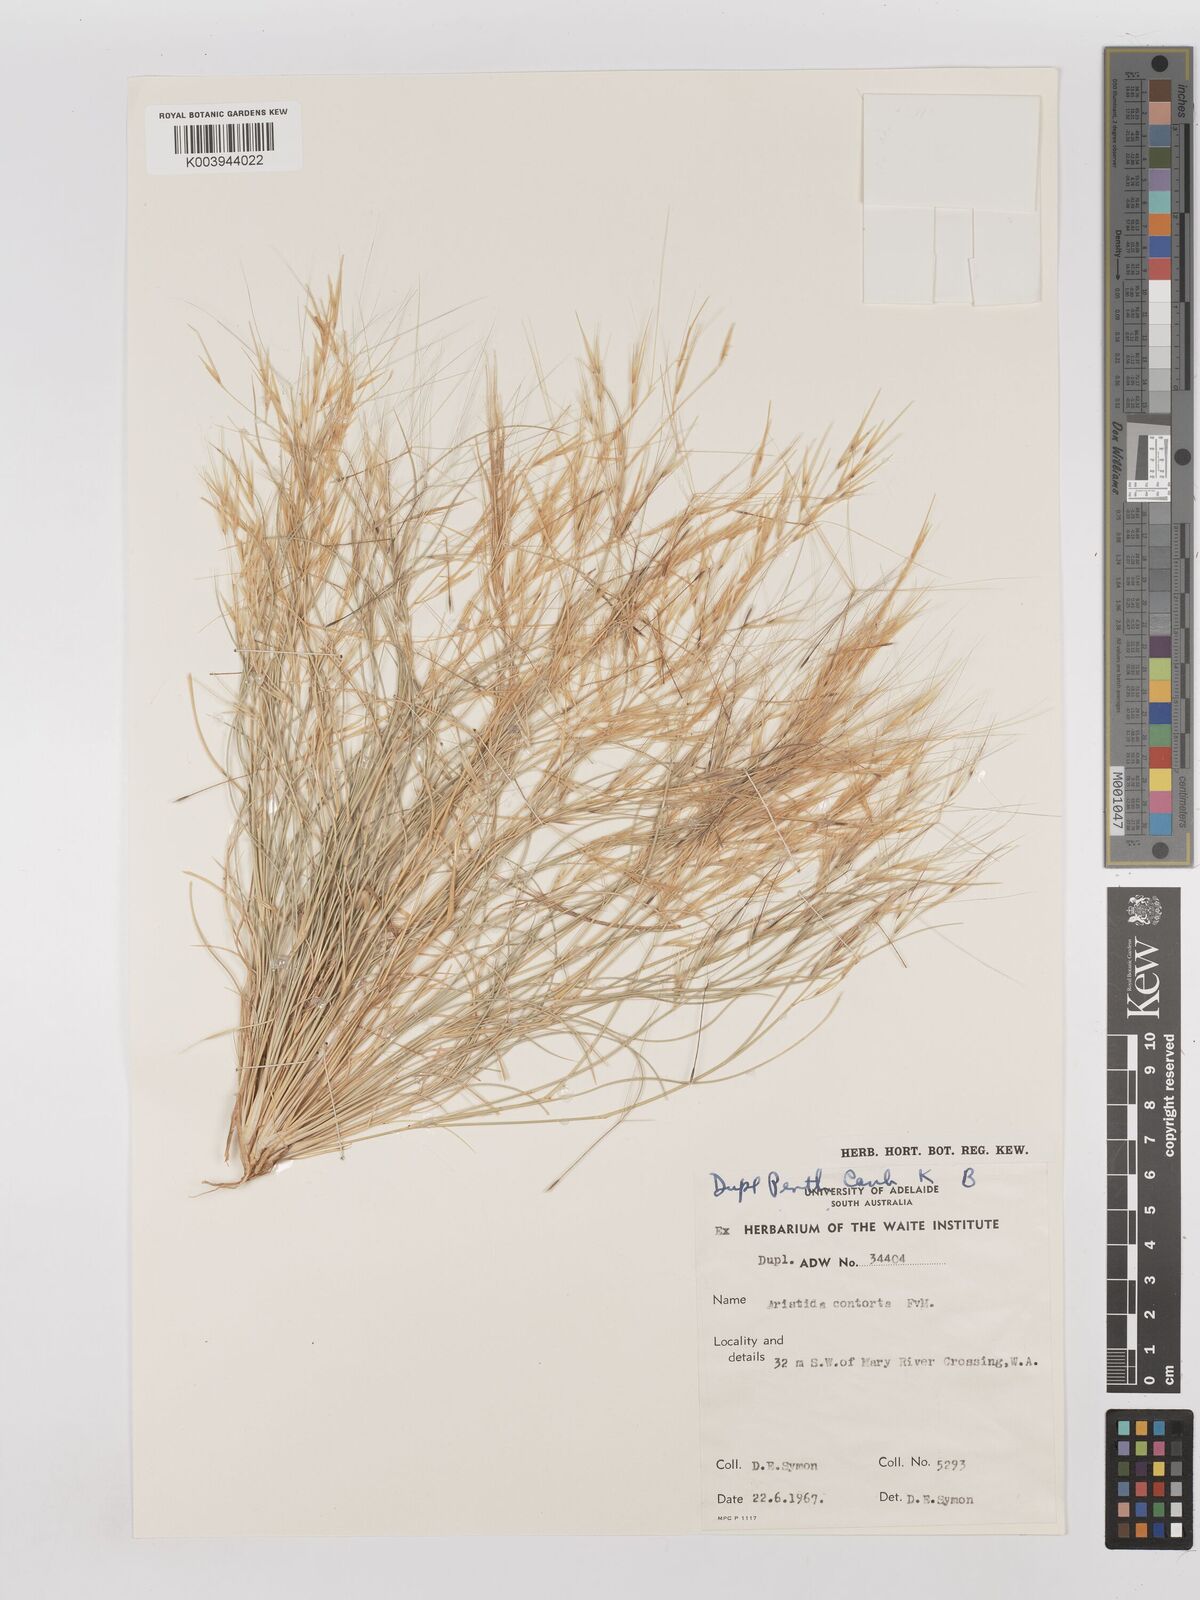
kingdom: Plantae
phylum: Tracheophyta
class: Liliopsida
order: Poales
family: Poaceae
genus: Aristida
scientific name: Aristida contorta
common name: Bunch kerosene grass
